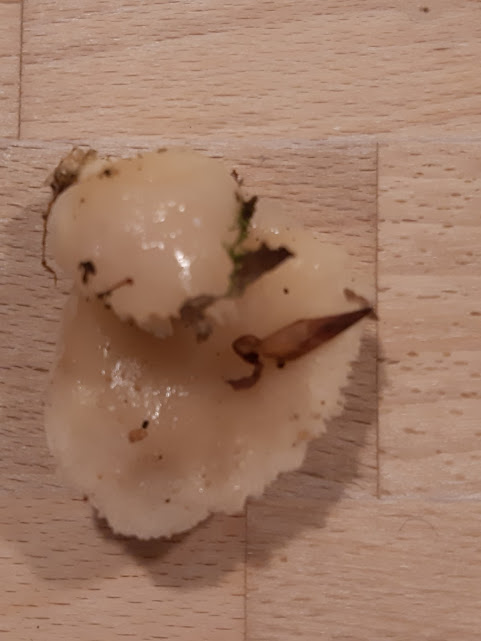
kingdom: Fungi
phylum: Basidiomycota
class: Agaricomycetes
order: Agaricales
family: Pleurotaceae
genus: Pleurotus
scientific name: Pleurotus pulmonarius
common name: sommer-østershat
